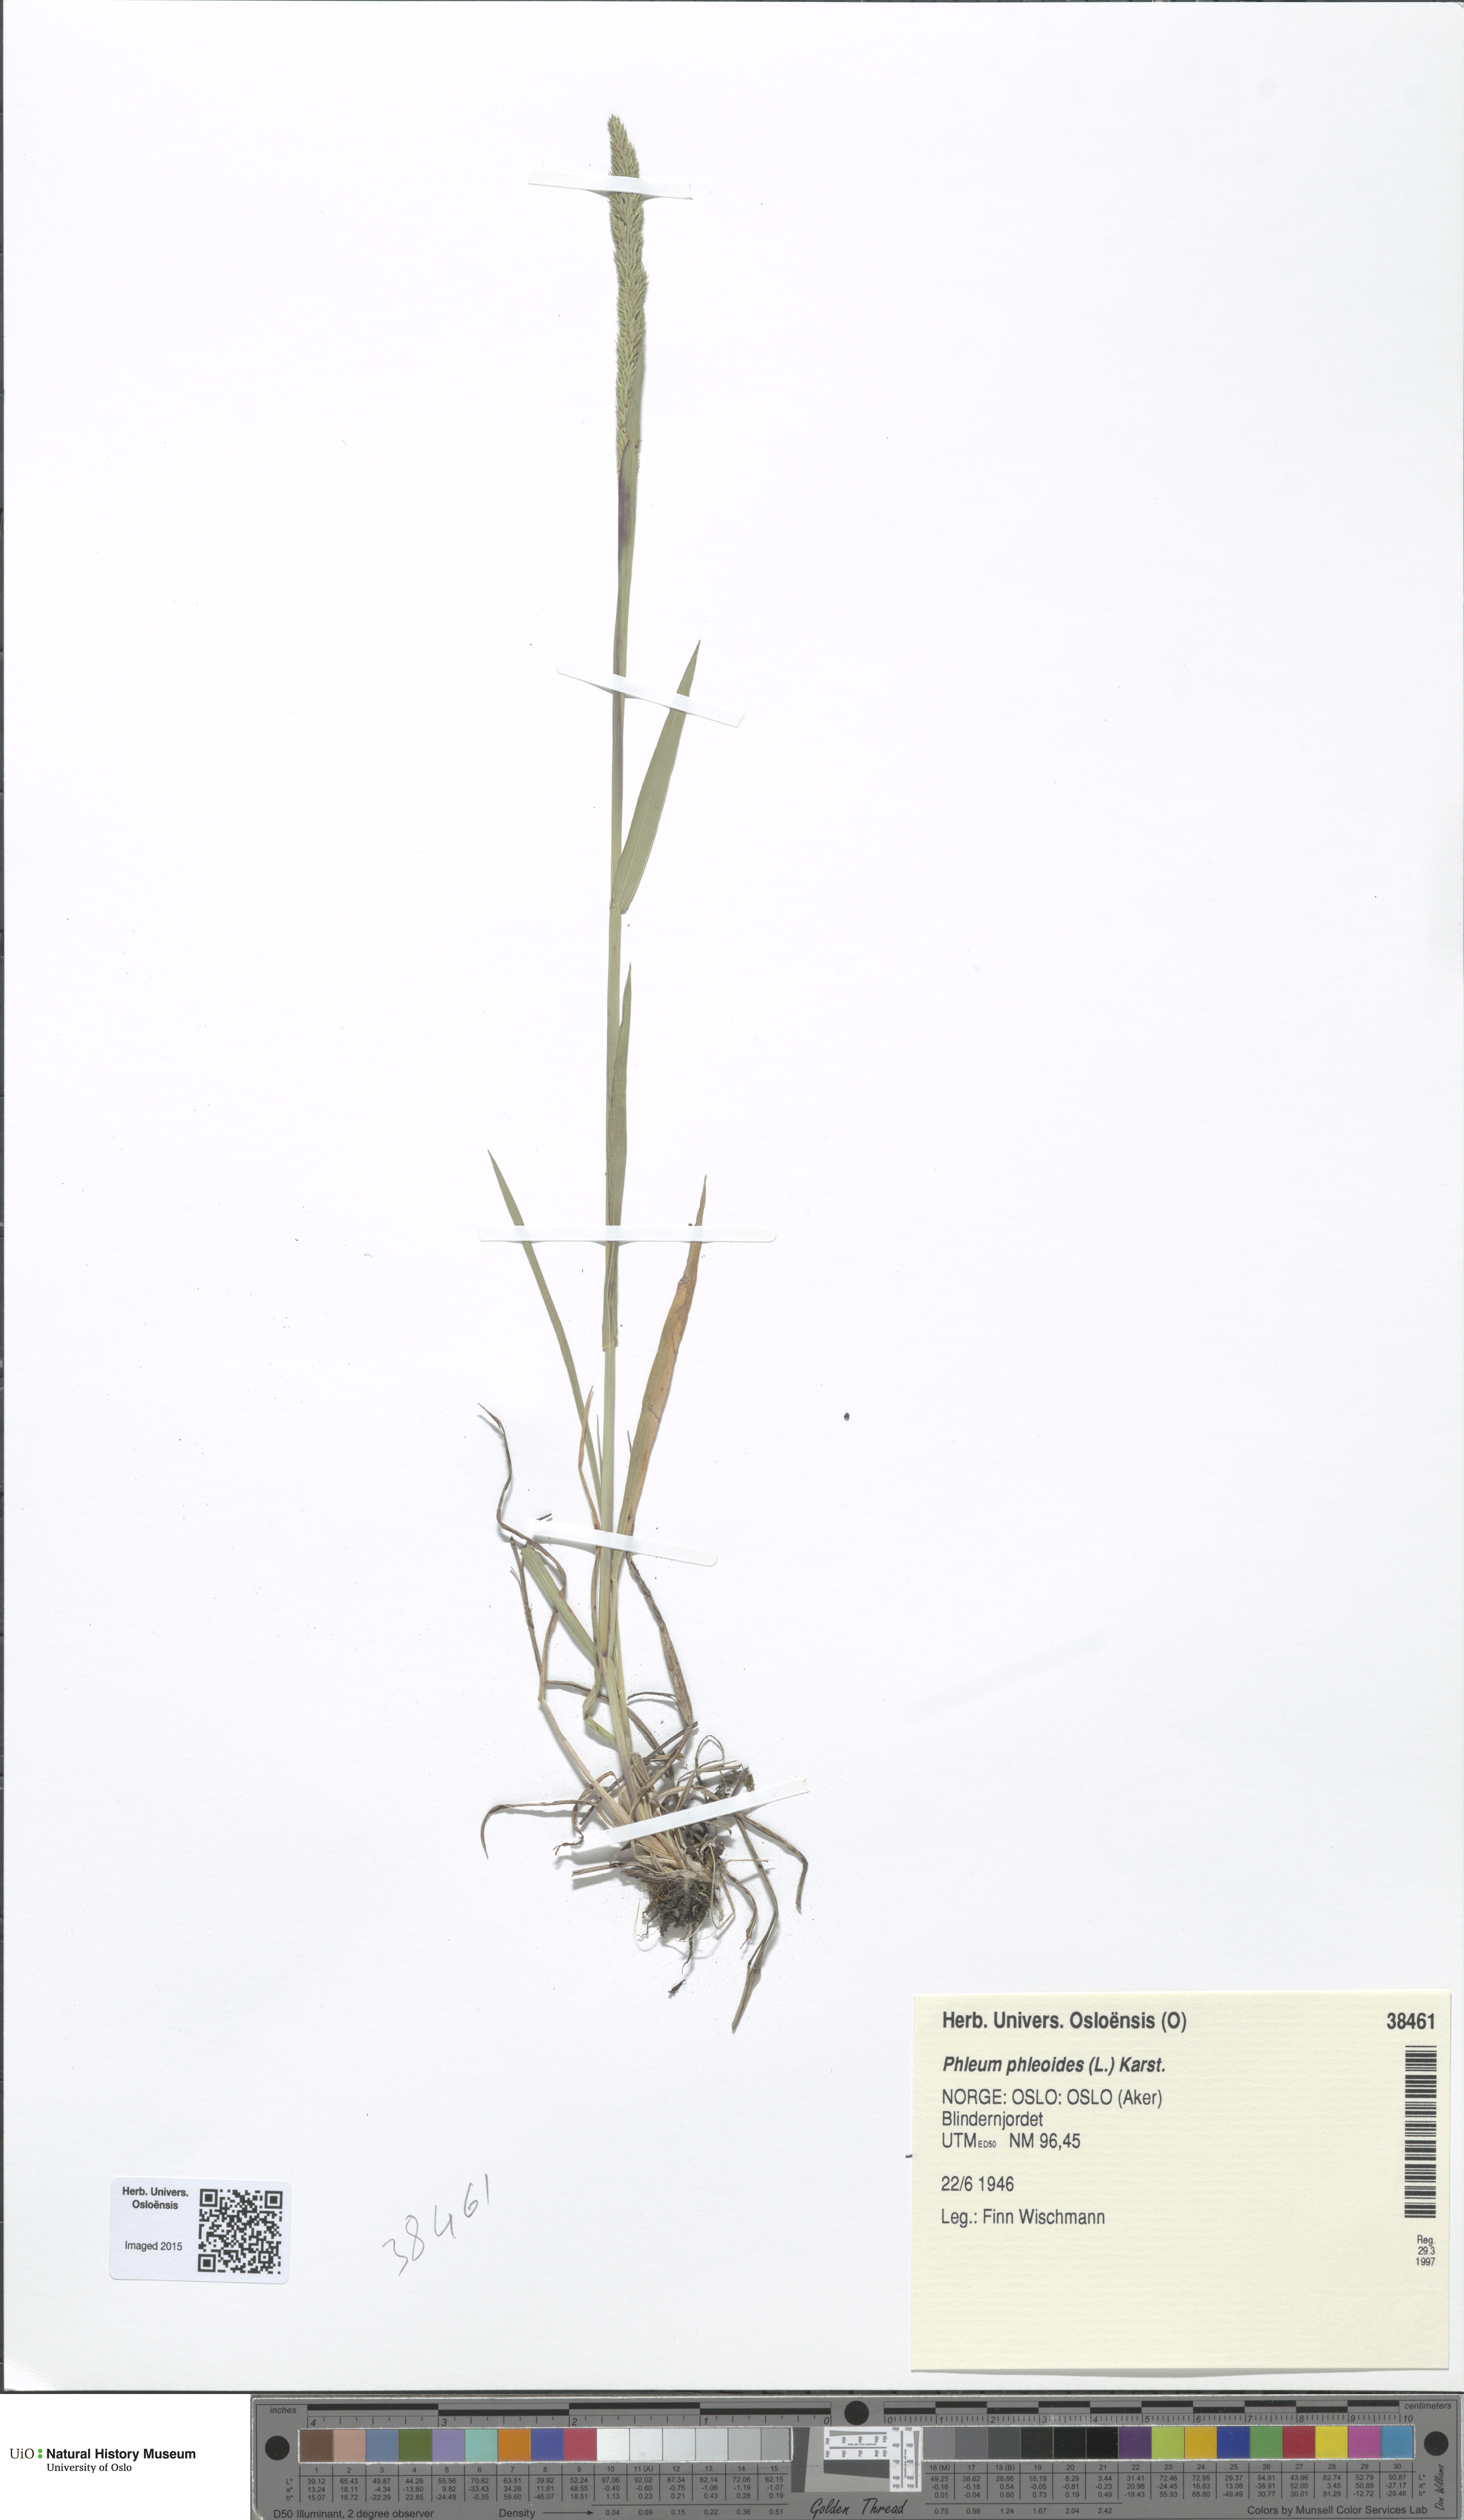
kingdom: Plantae
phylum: Tracheophyta
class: Liliopsida
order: Poales
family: Poaceae
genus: Phleum
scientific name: Phleum phleoides
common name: Purple-stem cat's-tail
